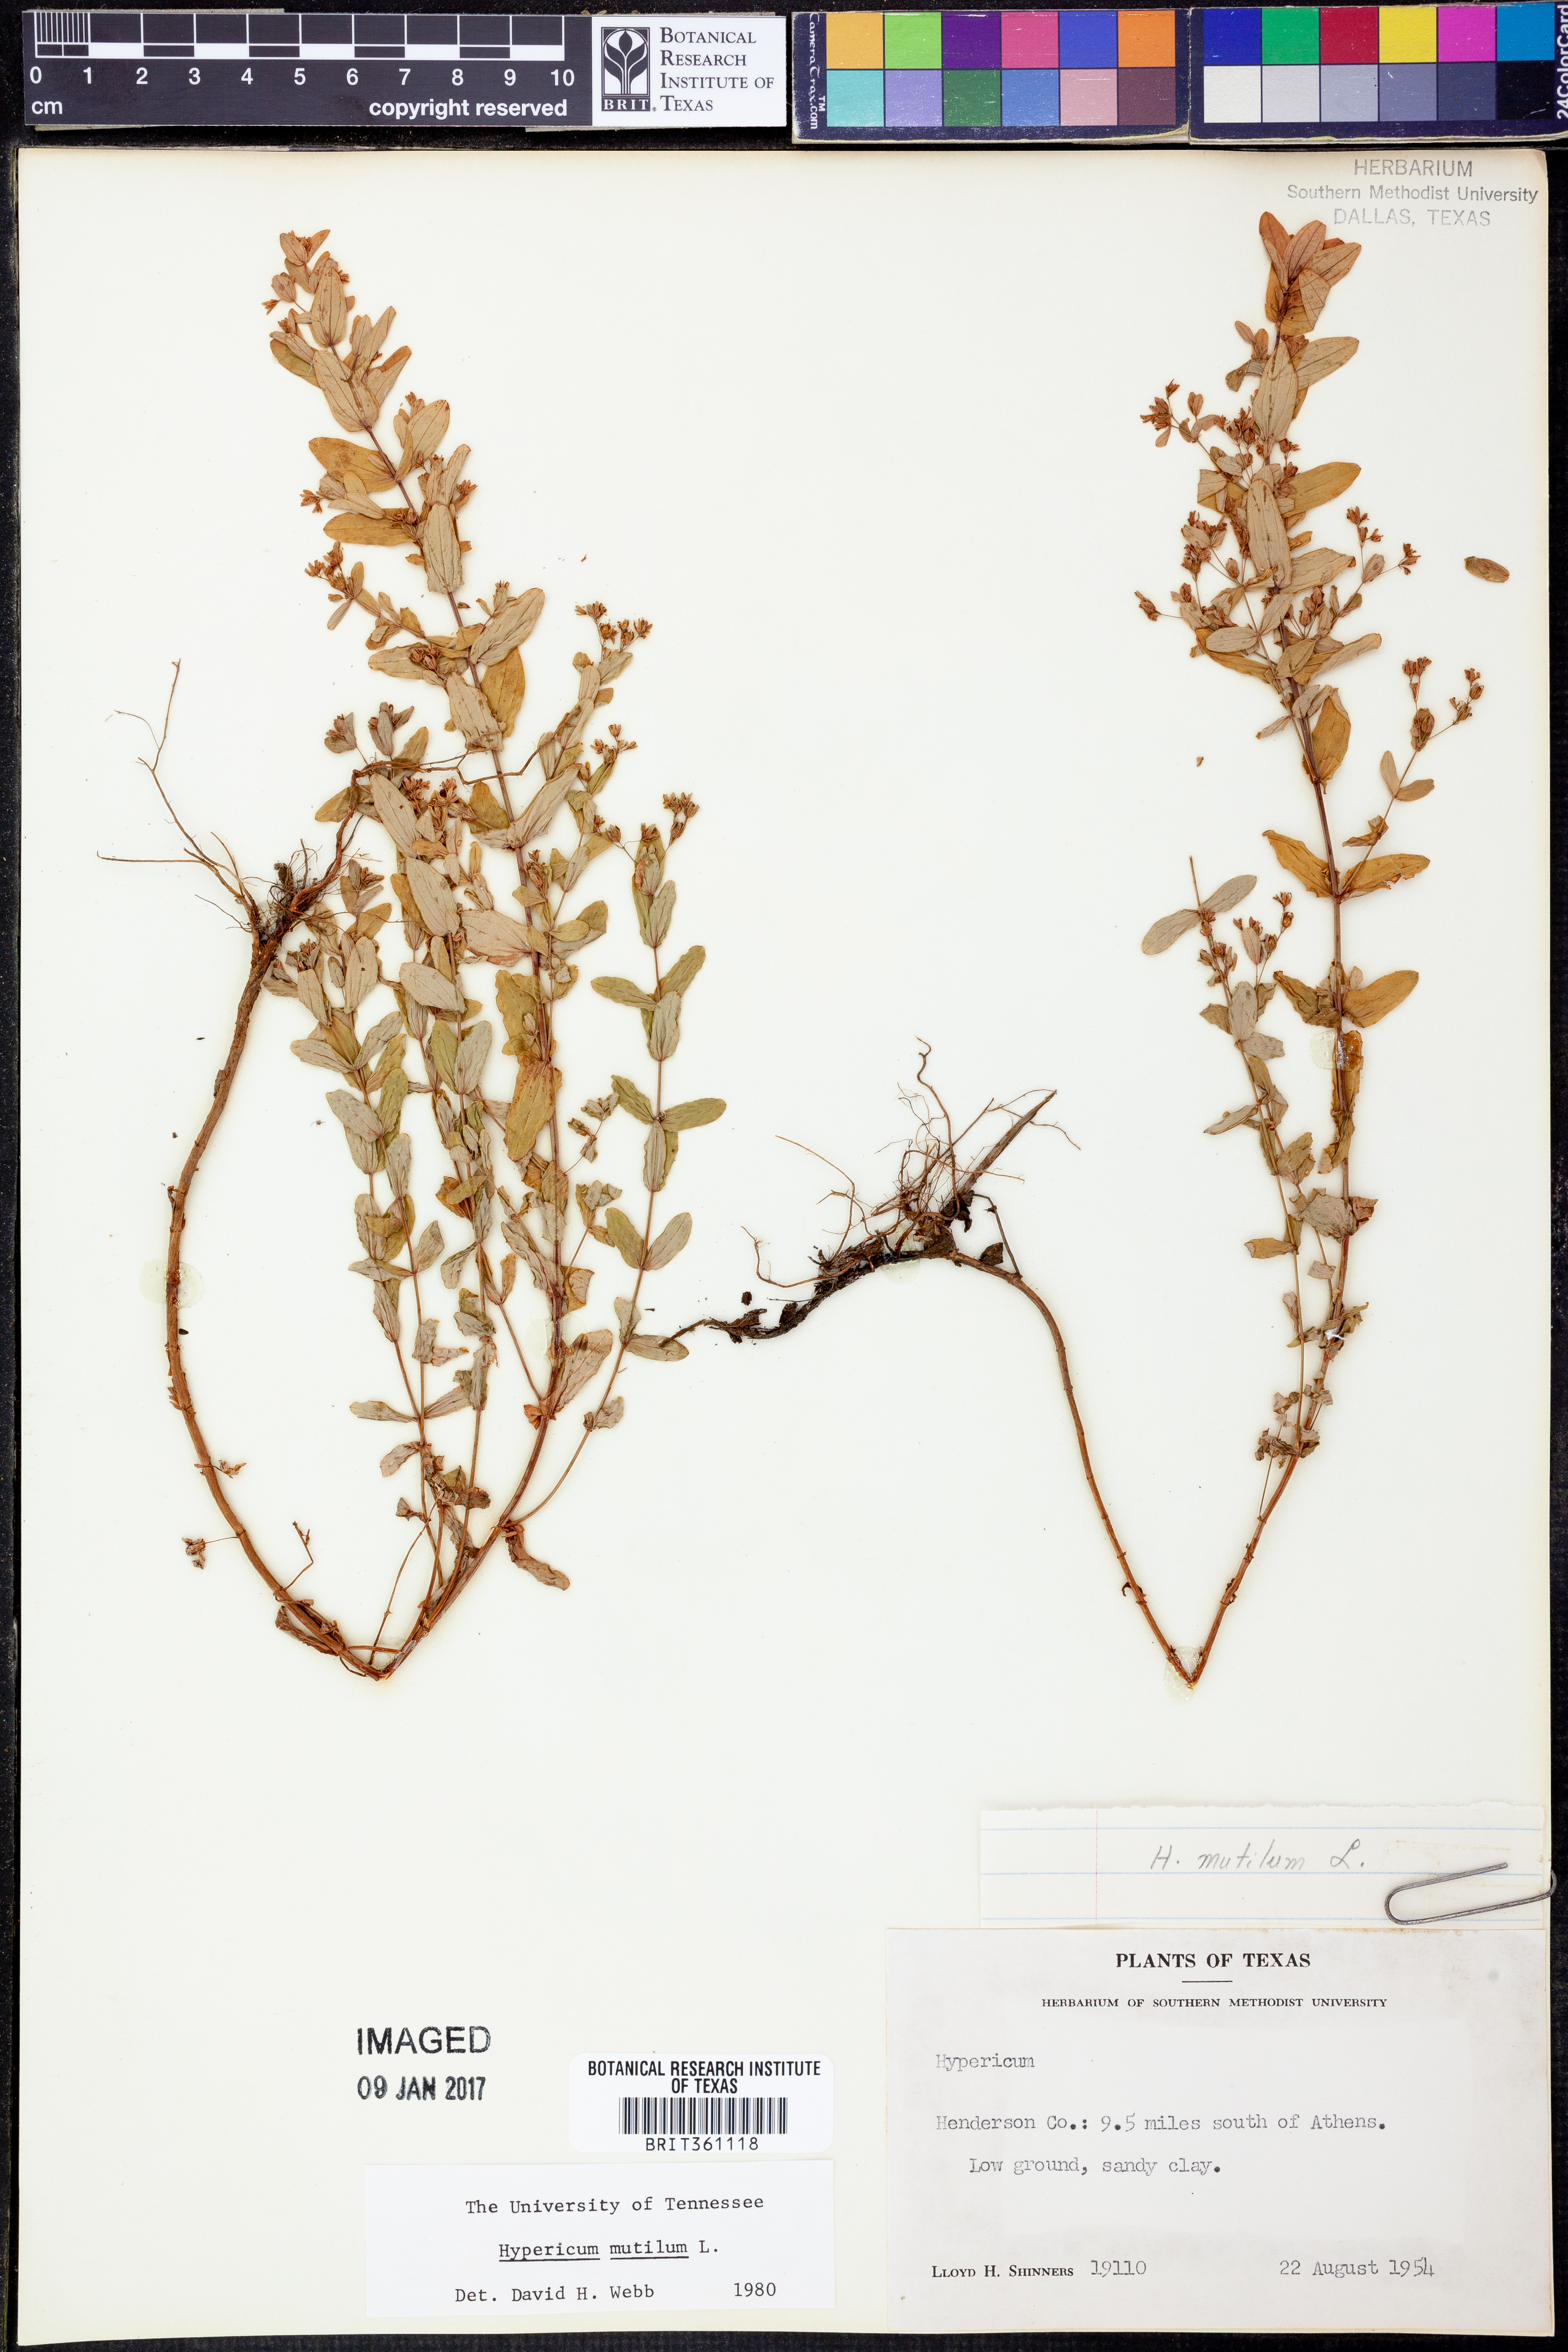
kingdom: Plantae
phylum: Tracheophyta
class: Magnoliopsida
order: Malpighiales
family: Hypericaceae
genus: Hypericum
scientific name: Hypericum mutilum
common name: Dwarf st. john's-wort
